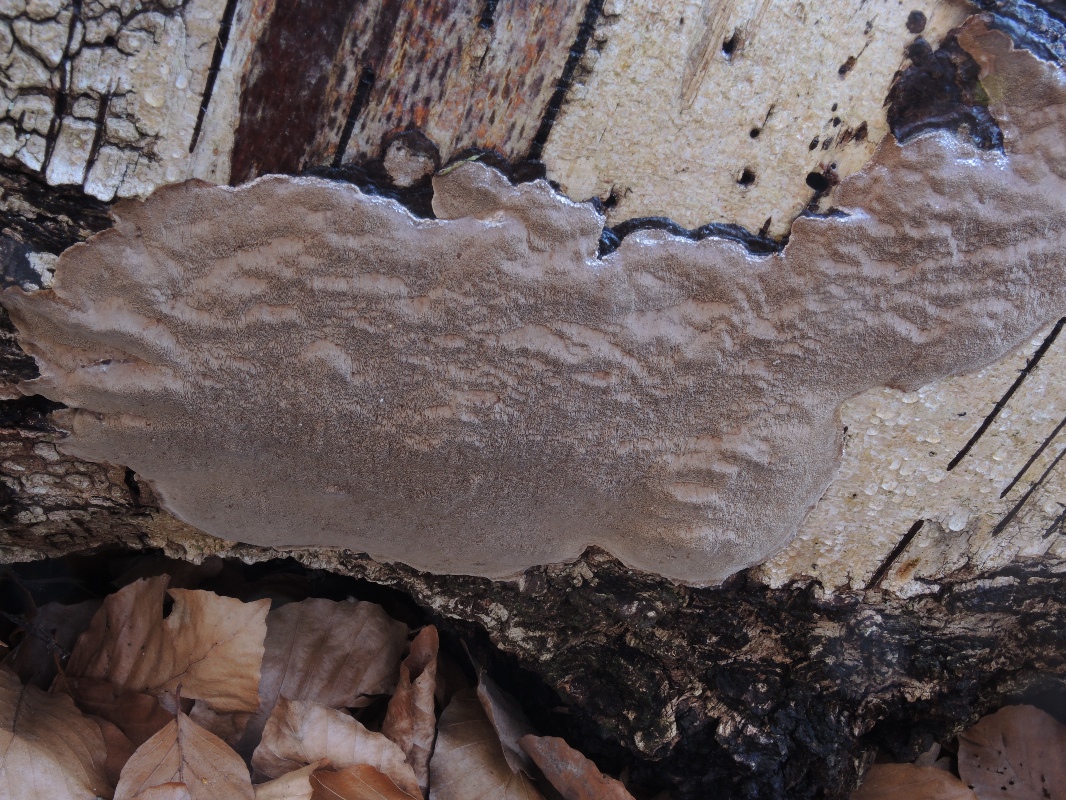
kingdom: Fungi
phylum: Basidiomycota
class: Agaricomycetes
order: Hymenochaetales
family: Hymenochaetaceae
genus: Phellinus
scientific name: Phellinus laevigatus
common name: glat ildporesvamp
